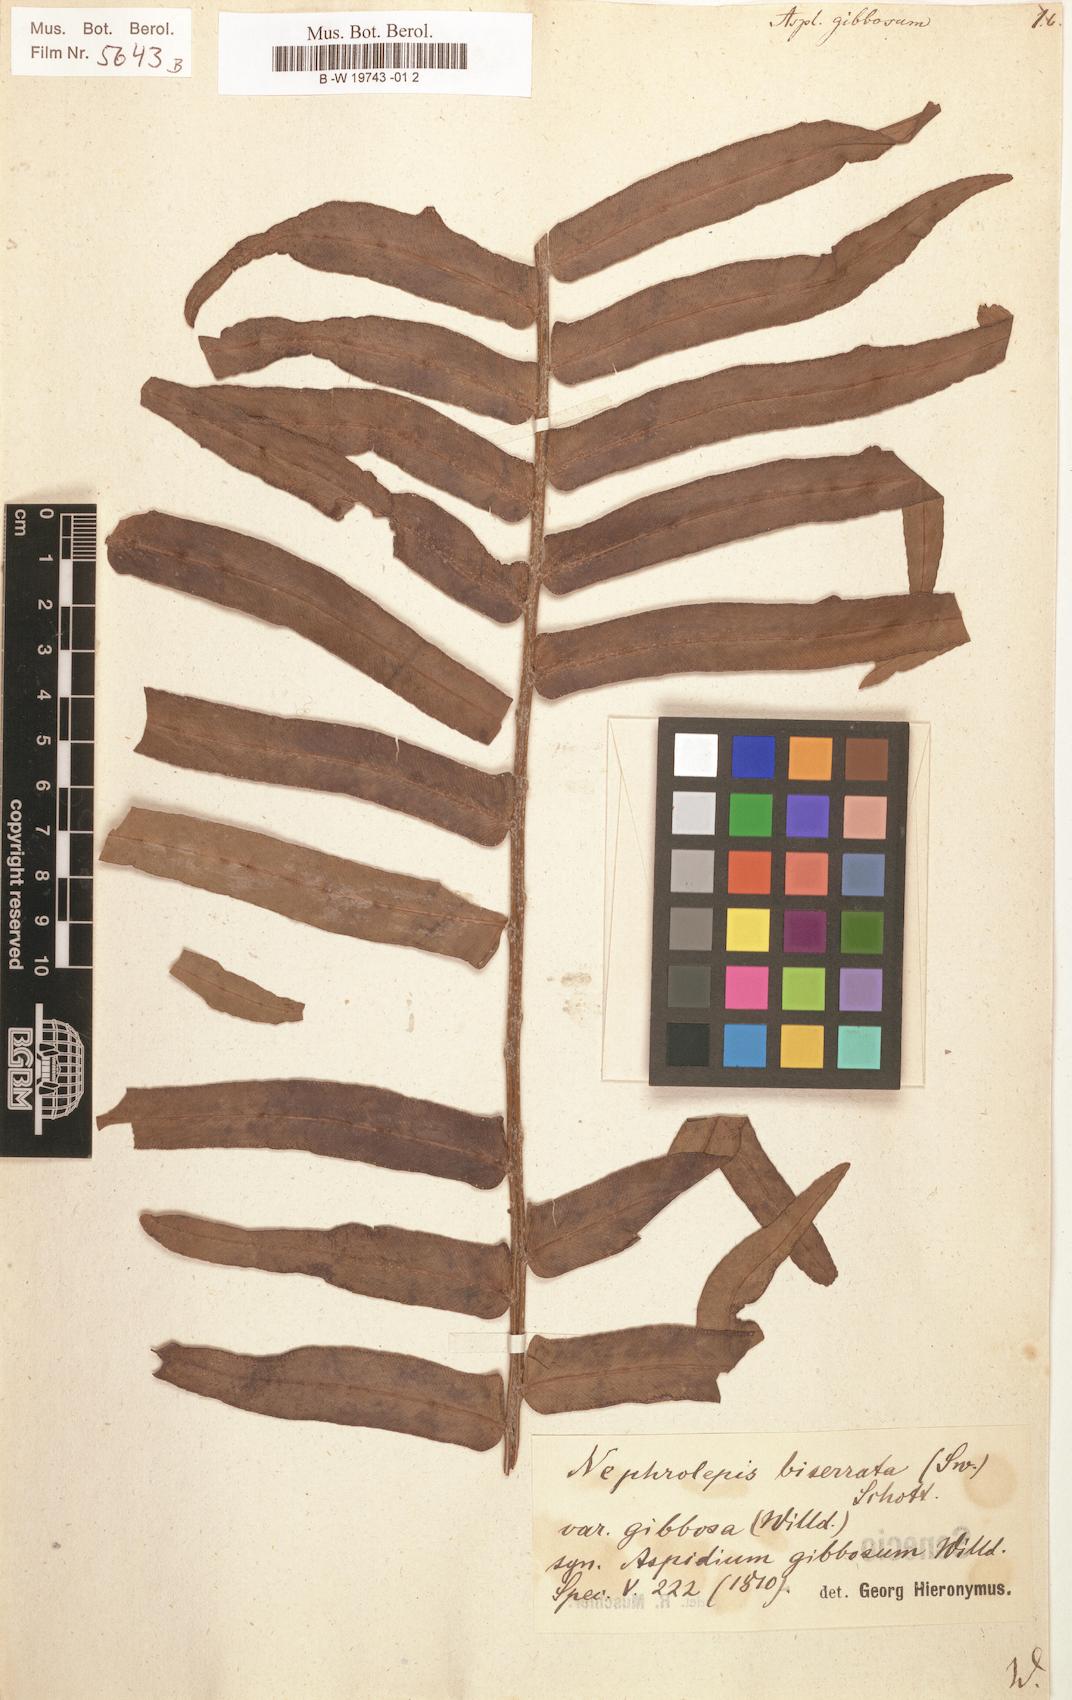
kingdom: Plantae
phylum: Tracheophyta
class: Polypodiopsida
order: Polypodiales
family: Nephrolepidaceae
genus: Nephrolepis
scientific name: Nephrolepis biserrata
